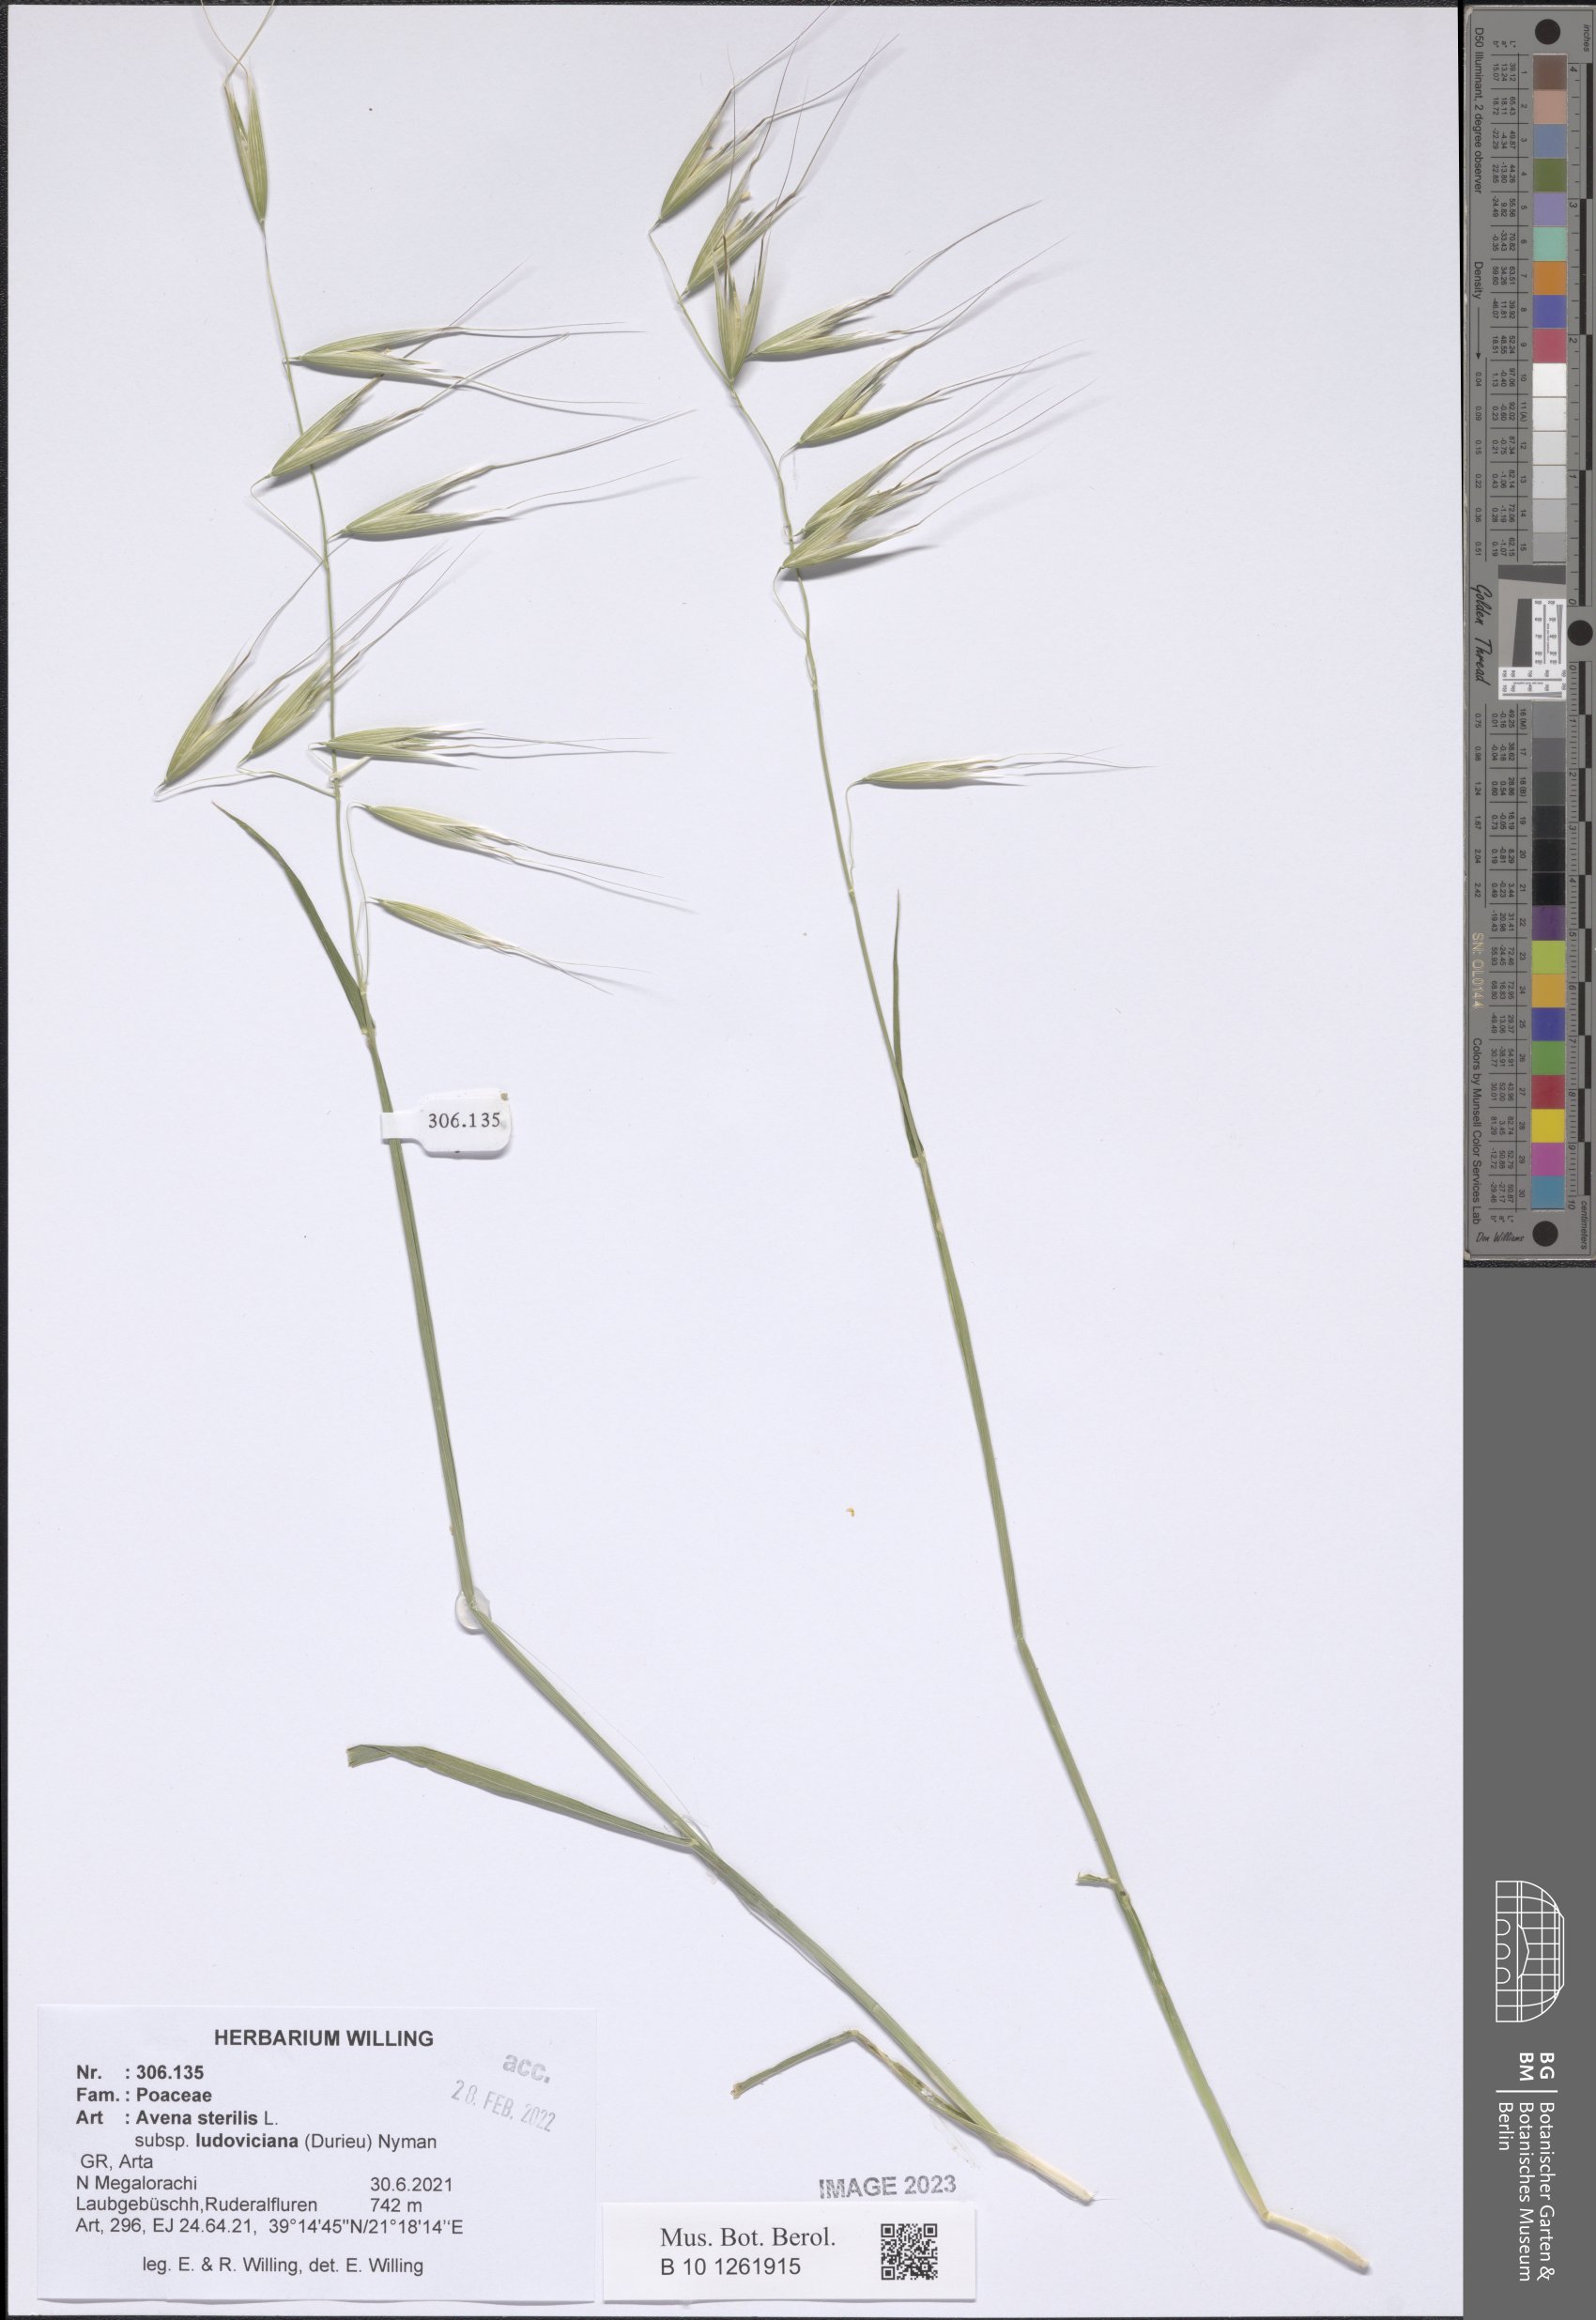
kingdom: Plantae
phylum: Tracheophyta
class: Liliopsida
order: Poales
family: Poaceae
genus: Avena
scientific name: Avena sterilis
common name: Animated oat
